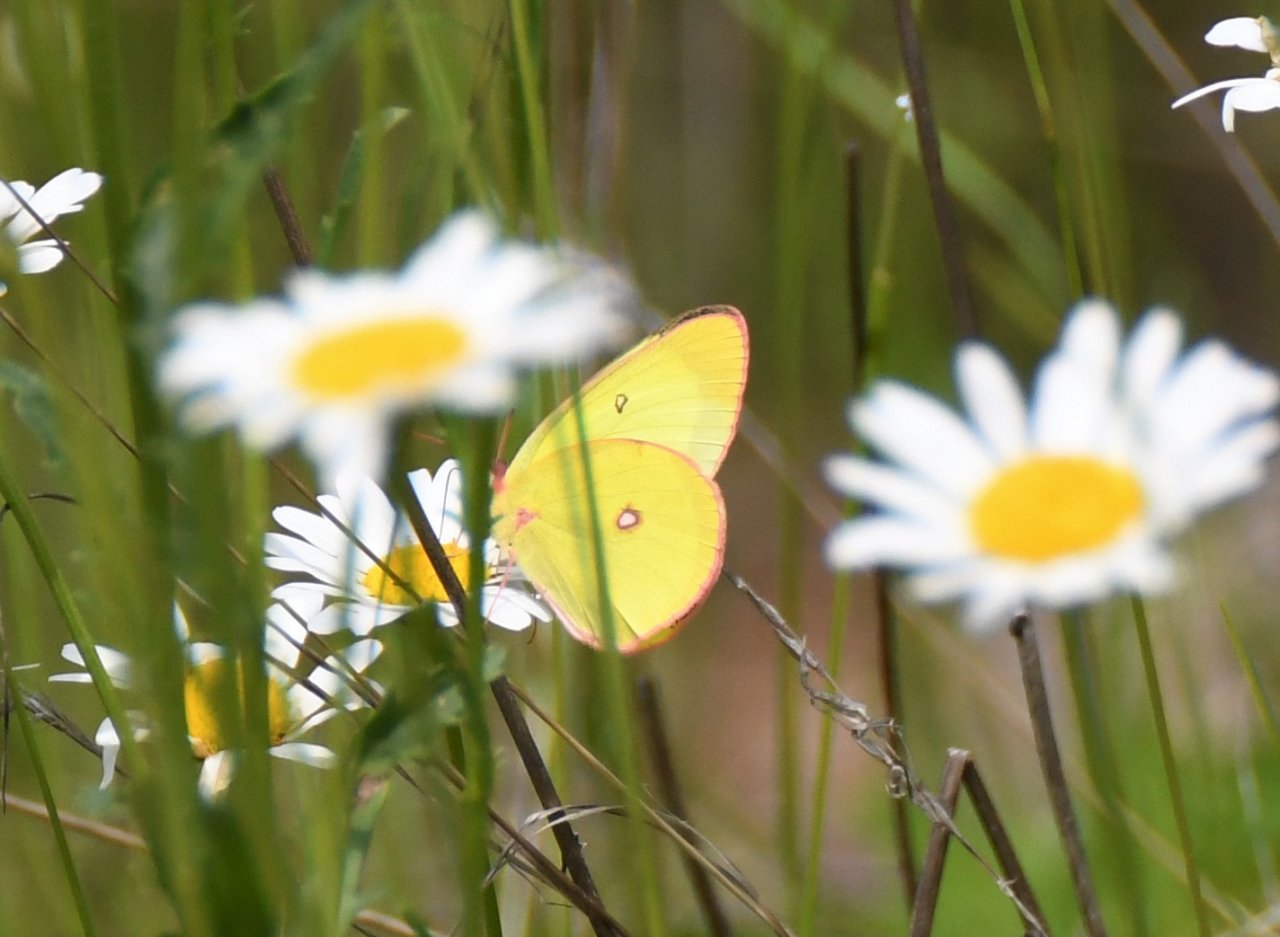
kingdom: Animalia
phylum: Arthropoda
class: Insecta
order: Lepidoptera
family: Pieridae
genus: Colias
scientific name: Colias interior
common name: Pink-edged Sulphur
